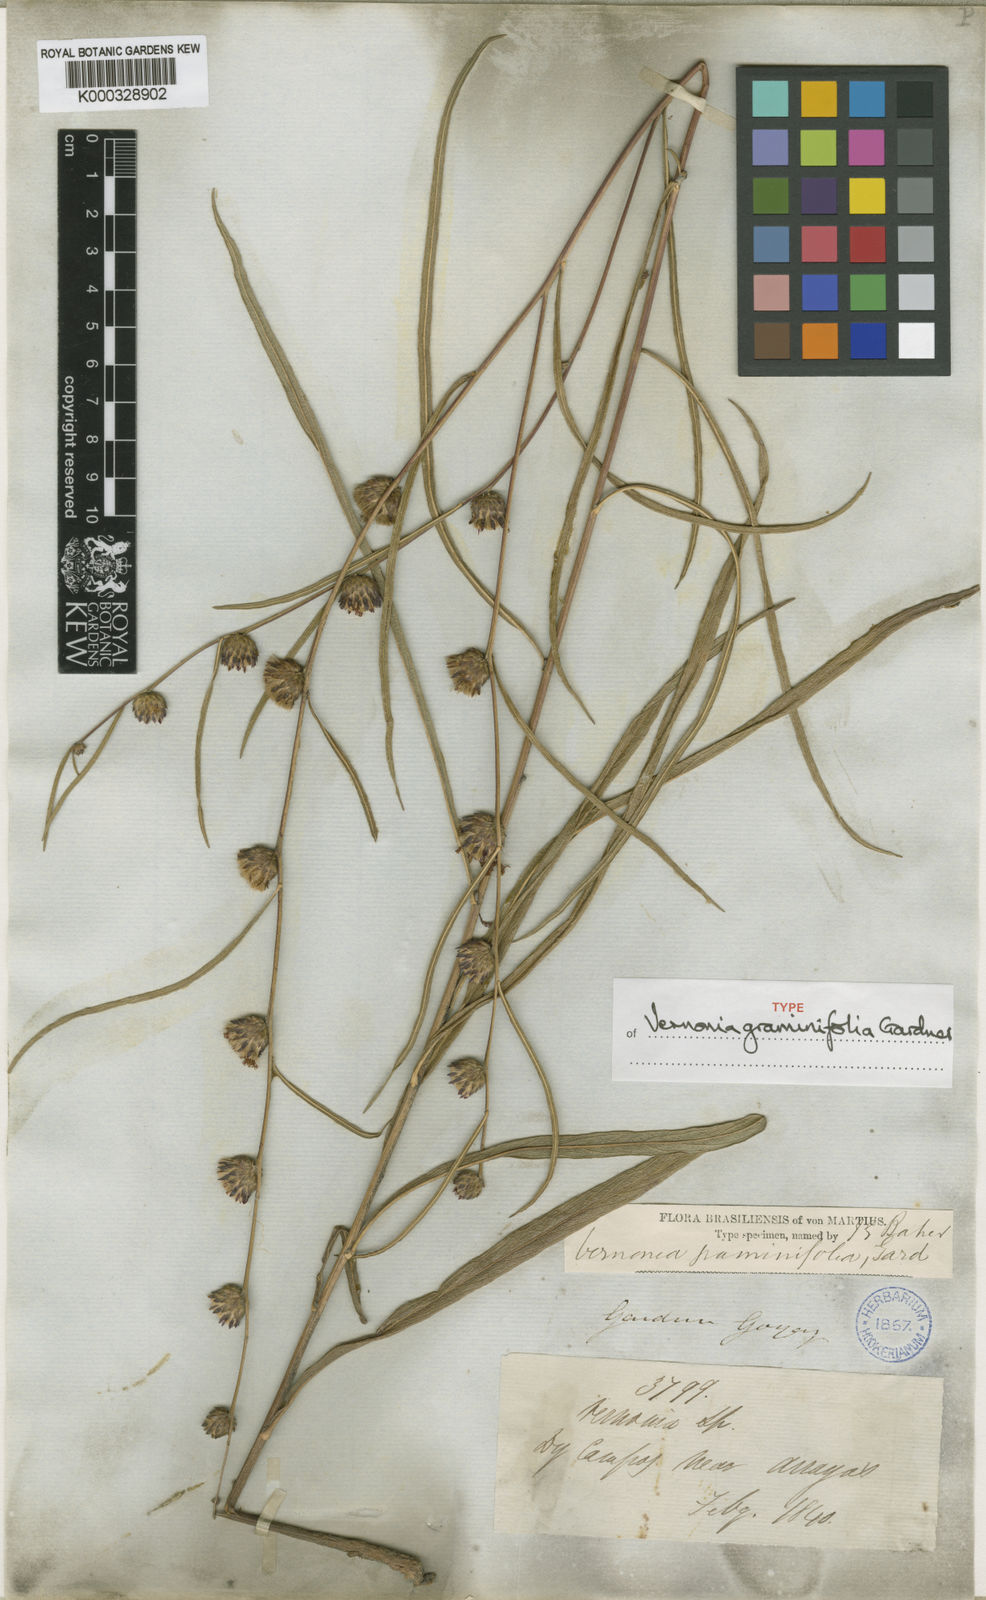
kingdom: Plantae
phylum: Tracheophyta
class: Magnoliopsida
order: Asterales
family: Asteraceae
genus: Lessingianthus
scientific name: Lessingianthus graminifolius
